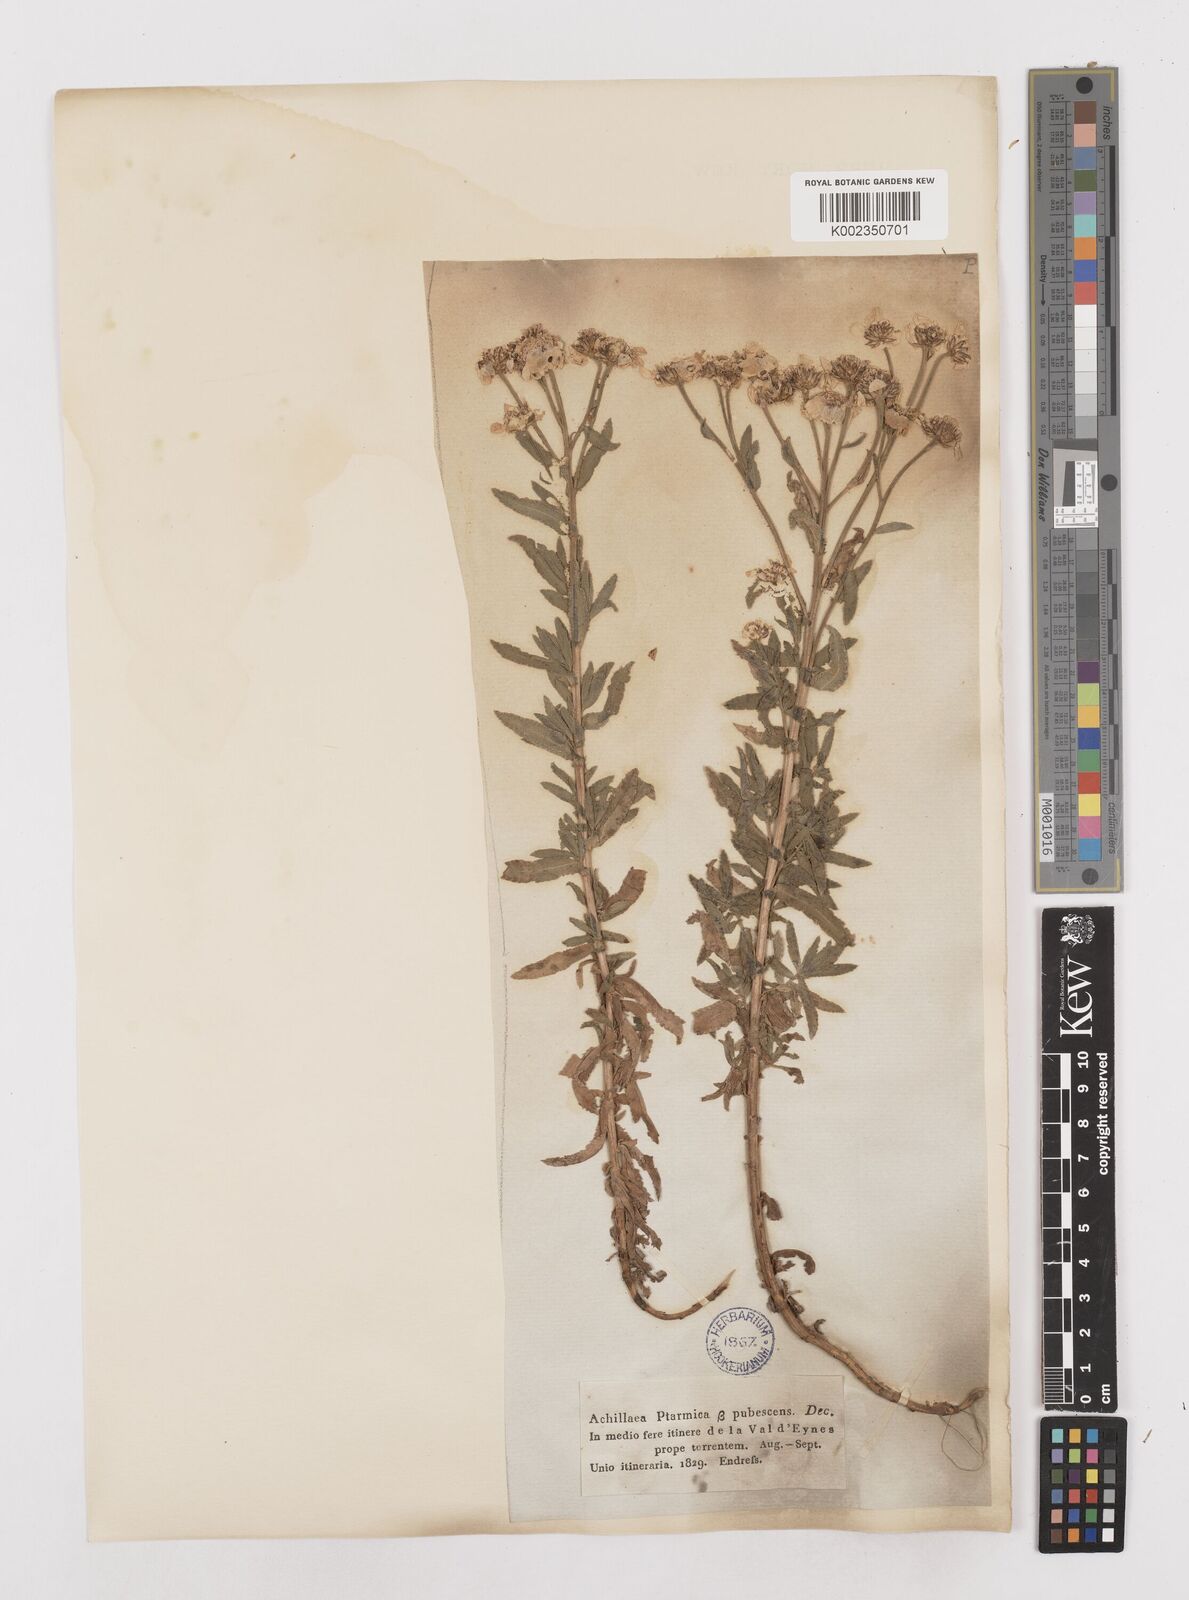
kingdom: Plantae
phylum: Tracheophyta
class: Magnoliopsida
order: Asterales
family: Asteraceae
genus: Achillea
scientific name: Achillea pyrenaica
